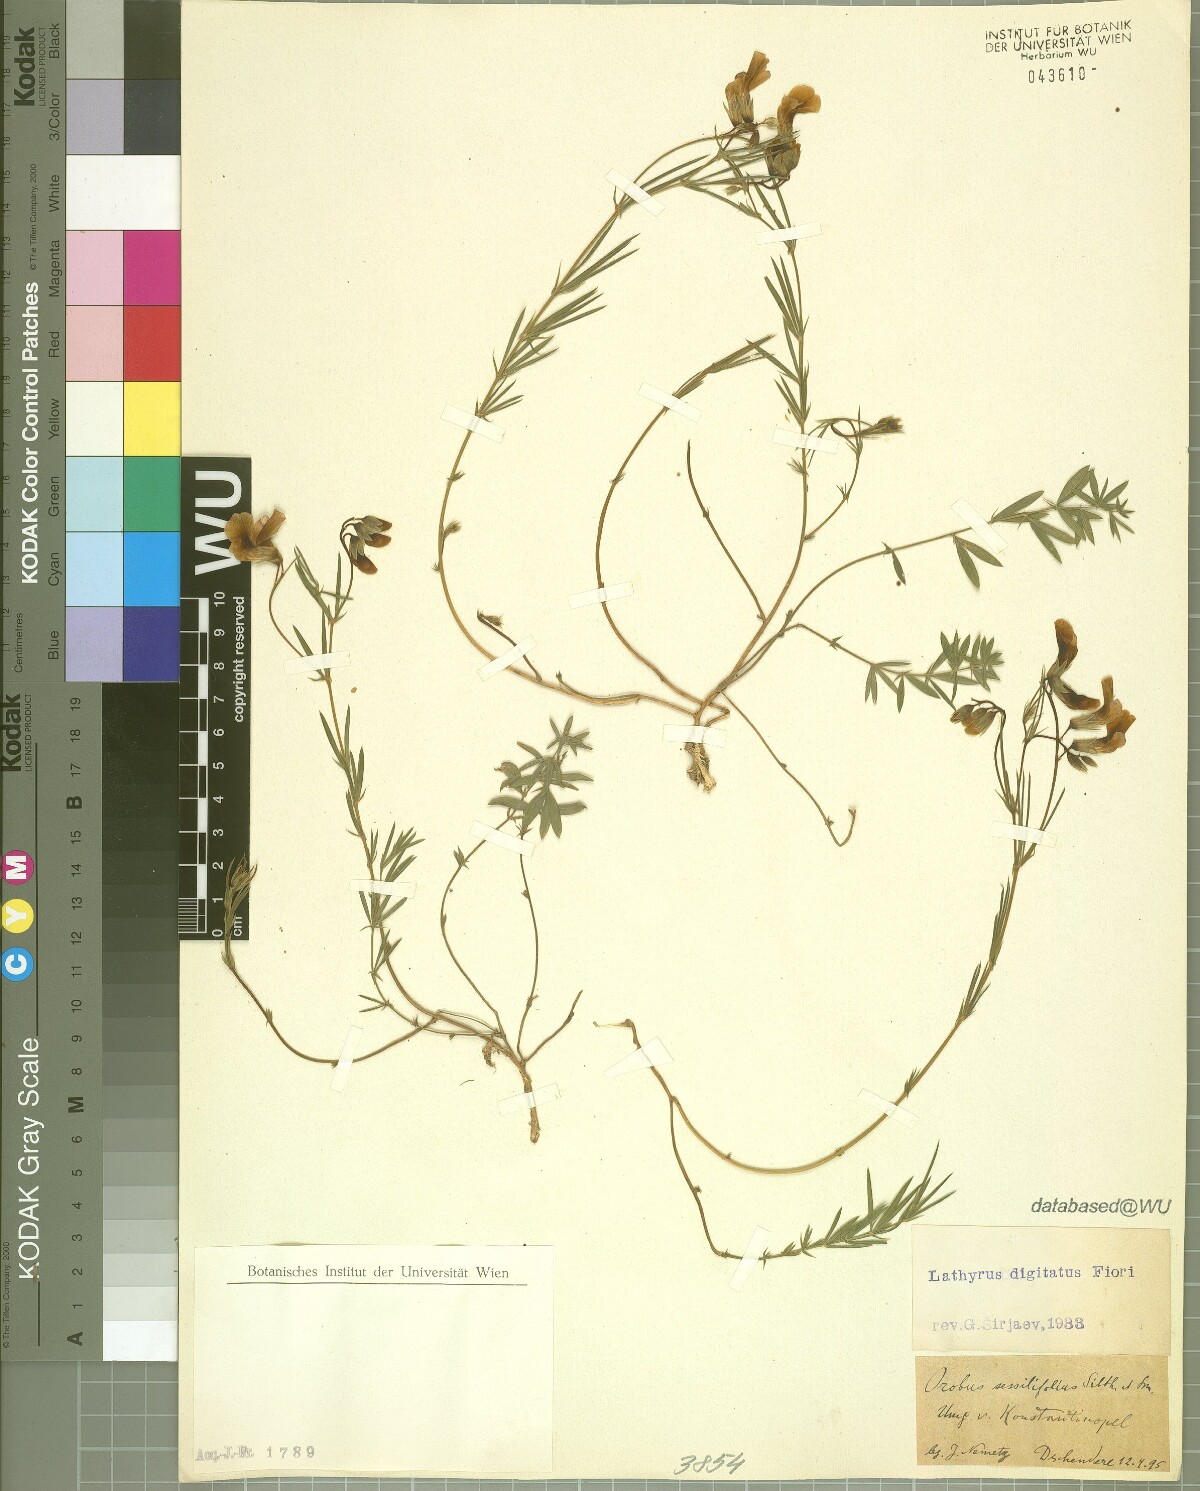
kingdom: Plantae
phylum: Tracheophyta
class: Magnoliopsida
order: Fabales
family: Fabaceae
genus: Lathyrus
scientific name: Lathyrus digitatus
